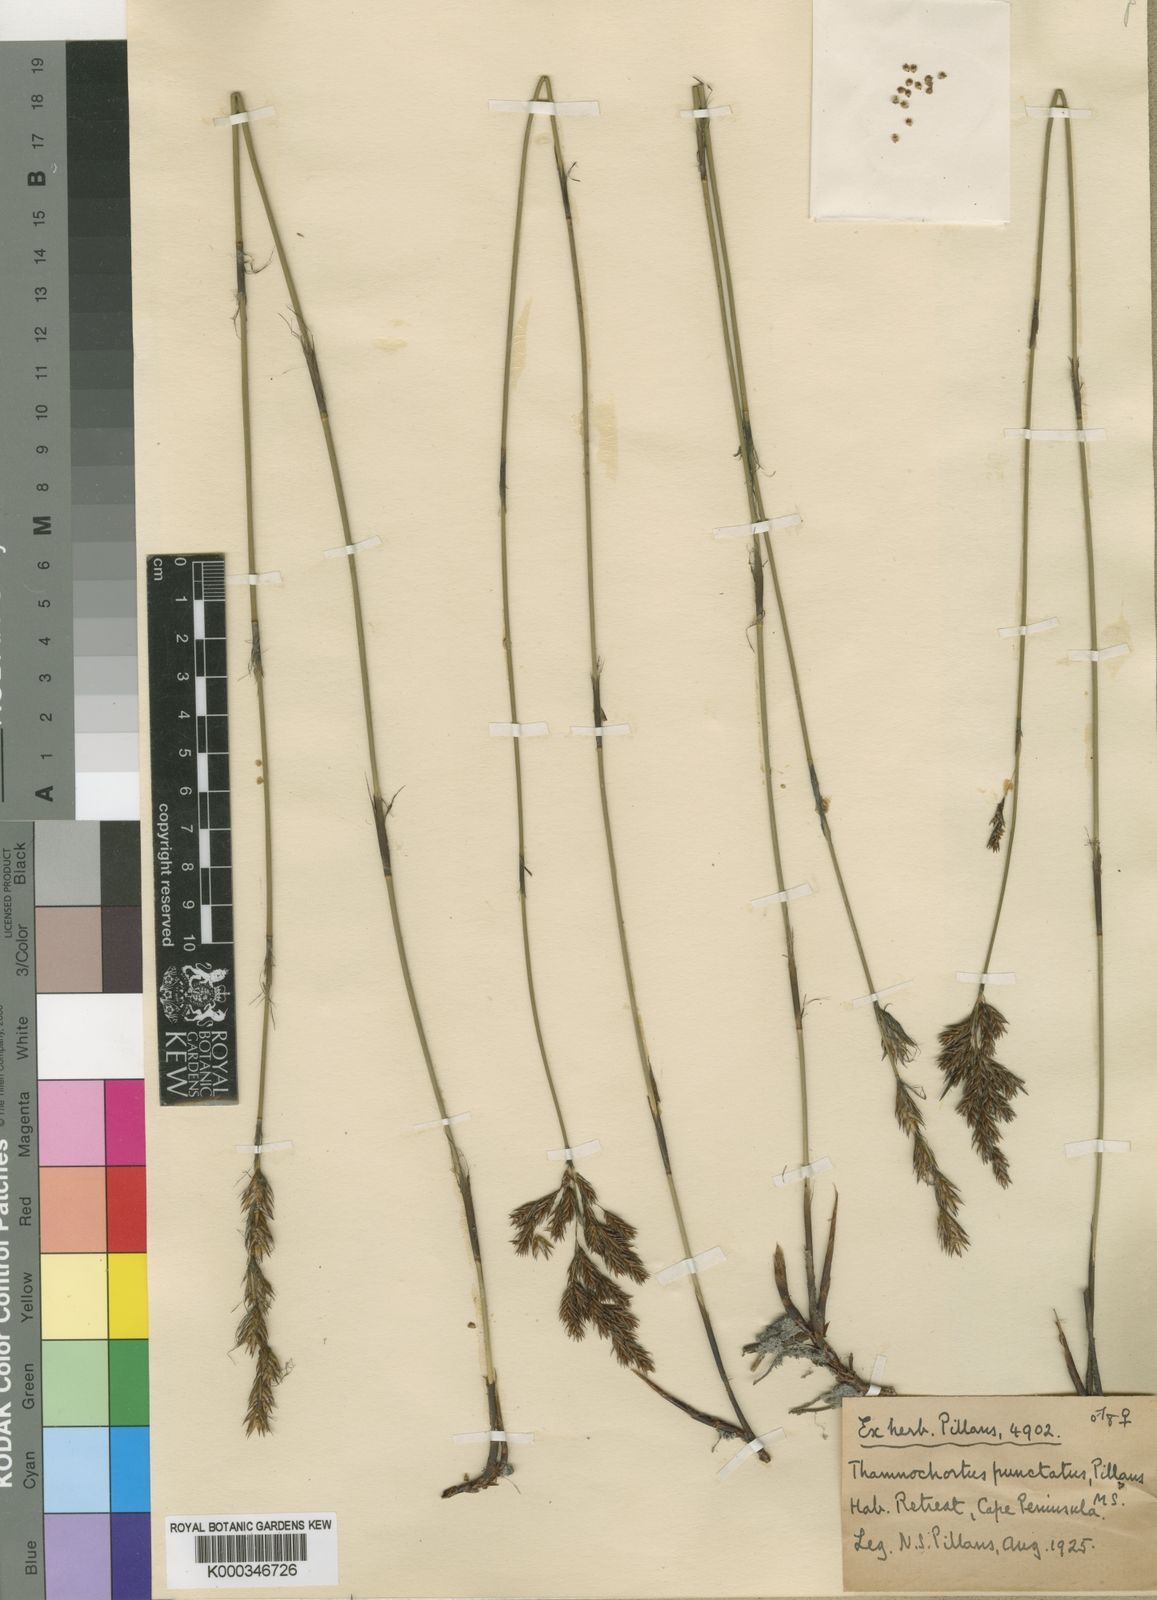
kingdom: Plantae
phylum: Tracheophyta
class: Liliopsida
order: Poales
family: Restionaceae
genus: Thamnochortus
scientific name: Thamnochortus punctatus
